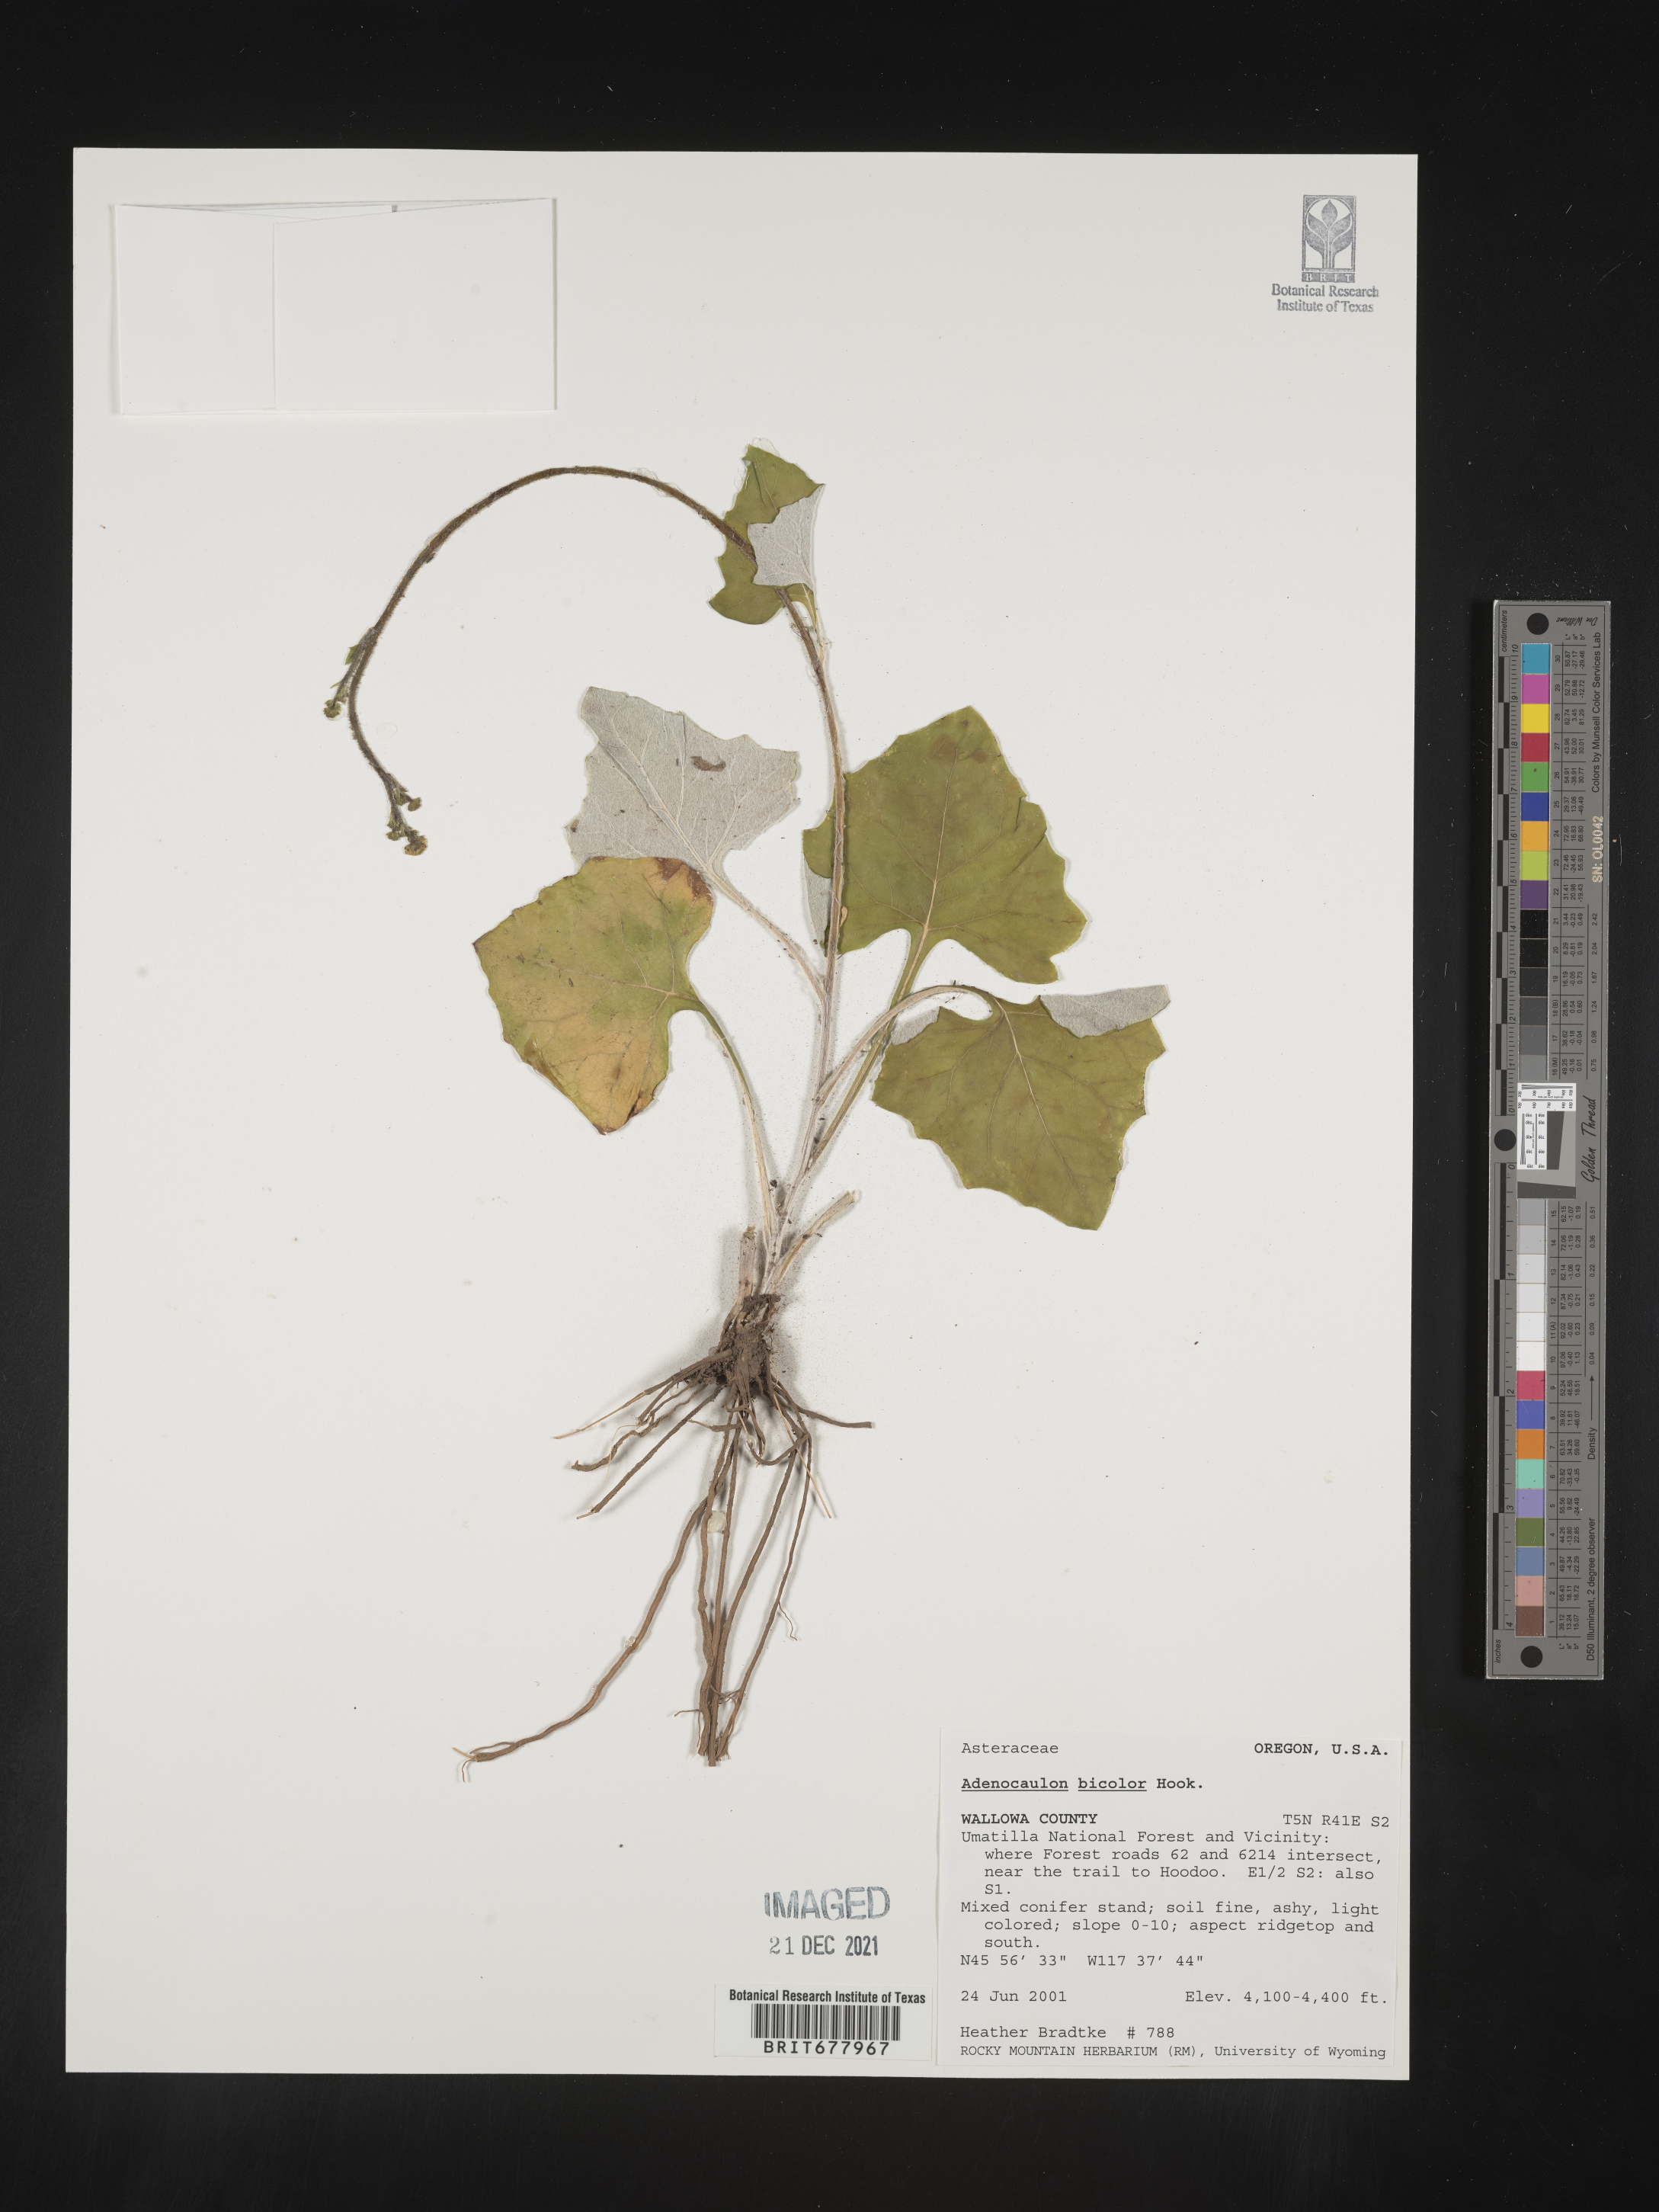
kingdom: Plantae
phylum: Tracheophyta
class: Magnoliopsida
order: Asterales
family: Asteraceae
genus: Adenocaulon
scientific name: Adenocaulon
